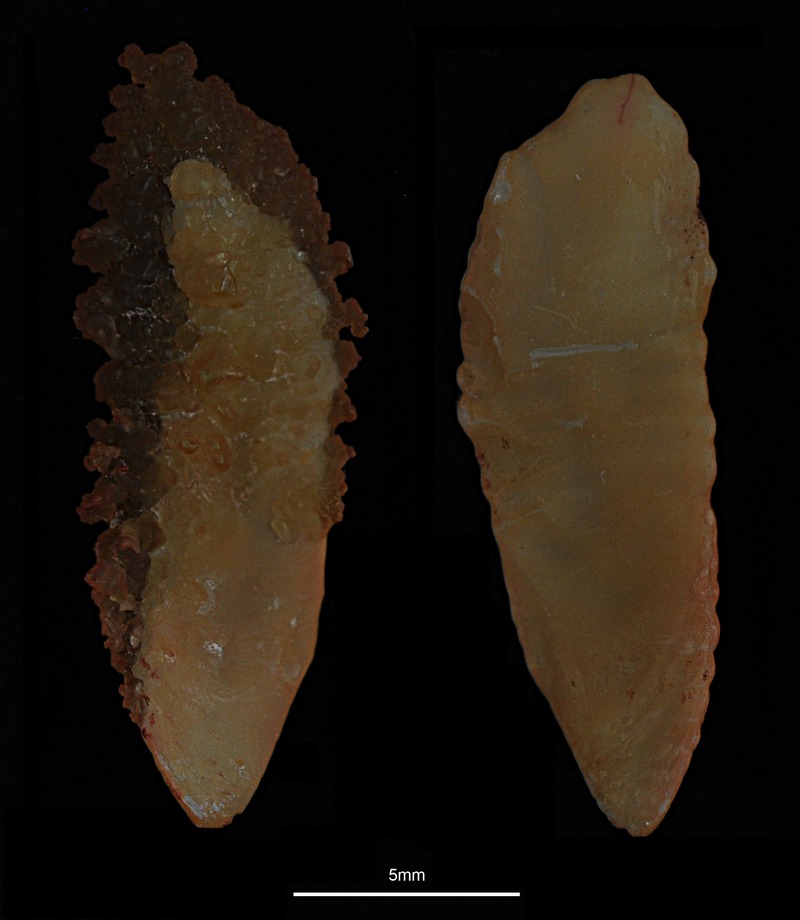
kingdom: Animalia
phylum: Chordata
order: Gadiformes
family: Gadidae
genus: Pollachius
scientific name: Pollachius virens
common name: Saithe
